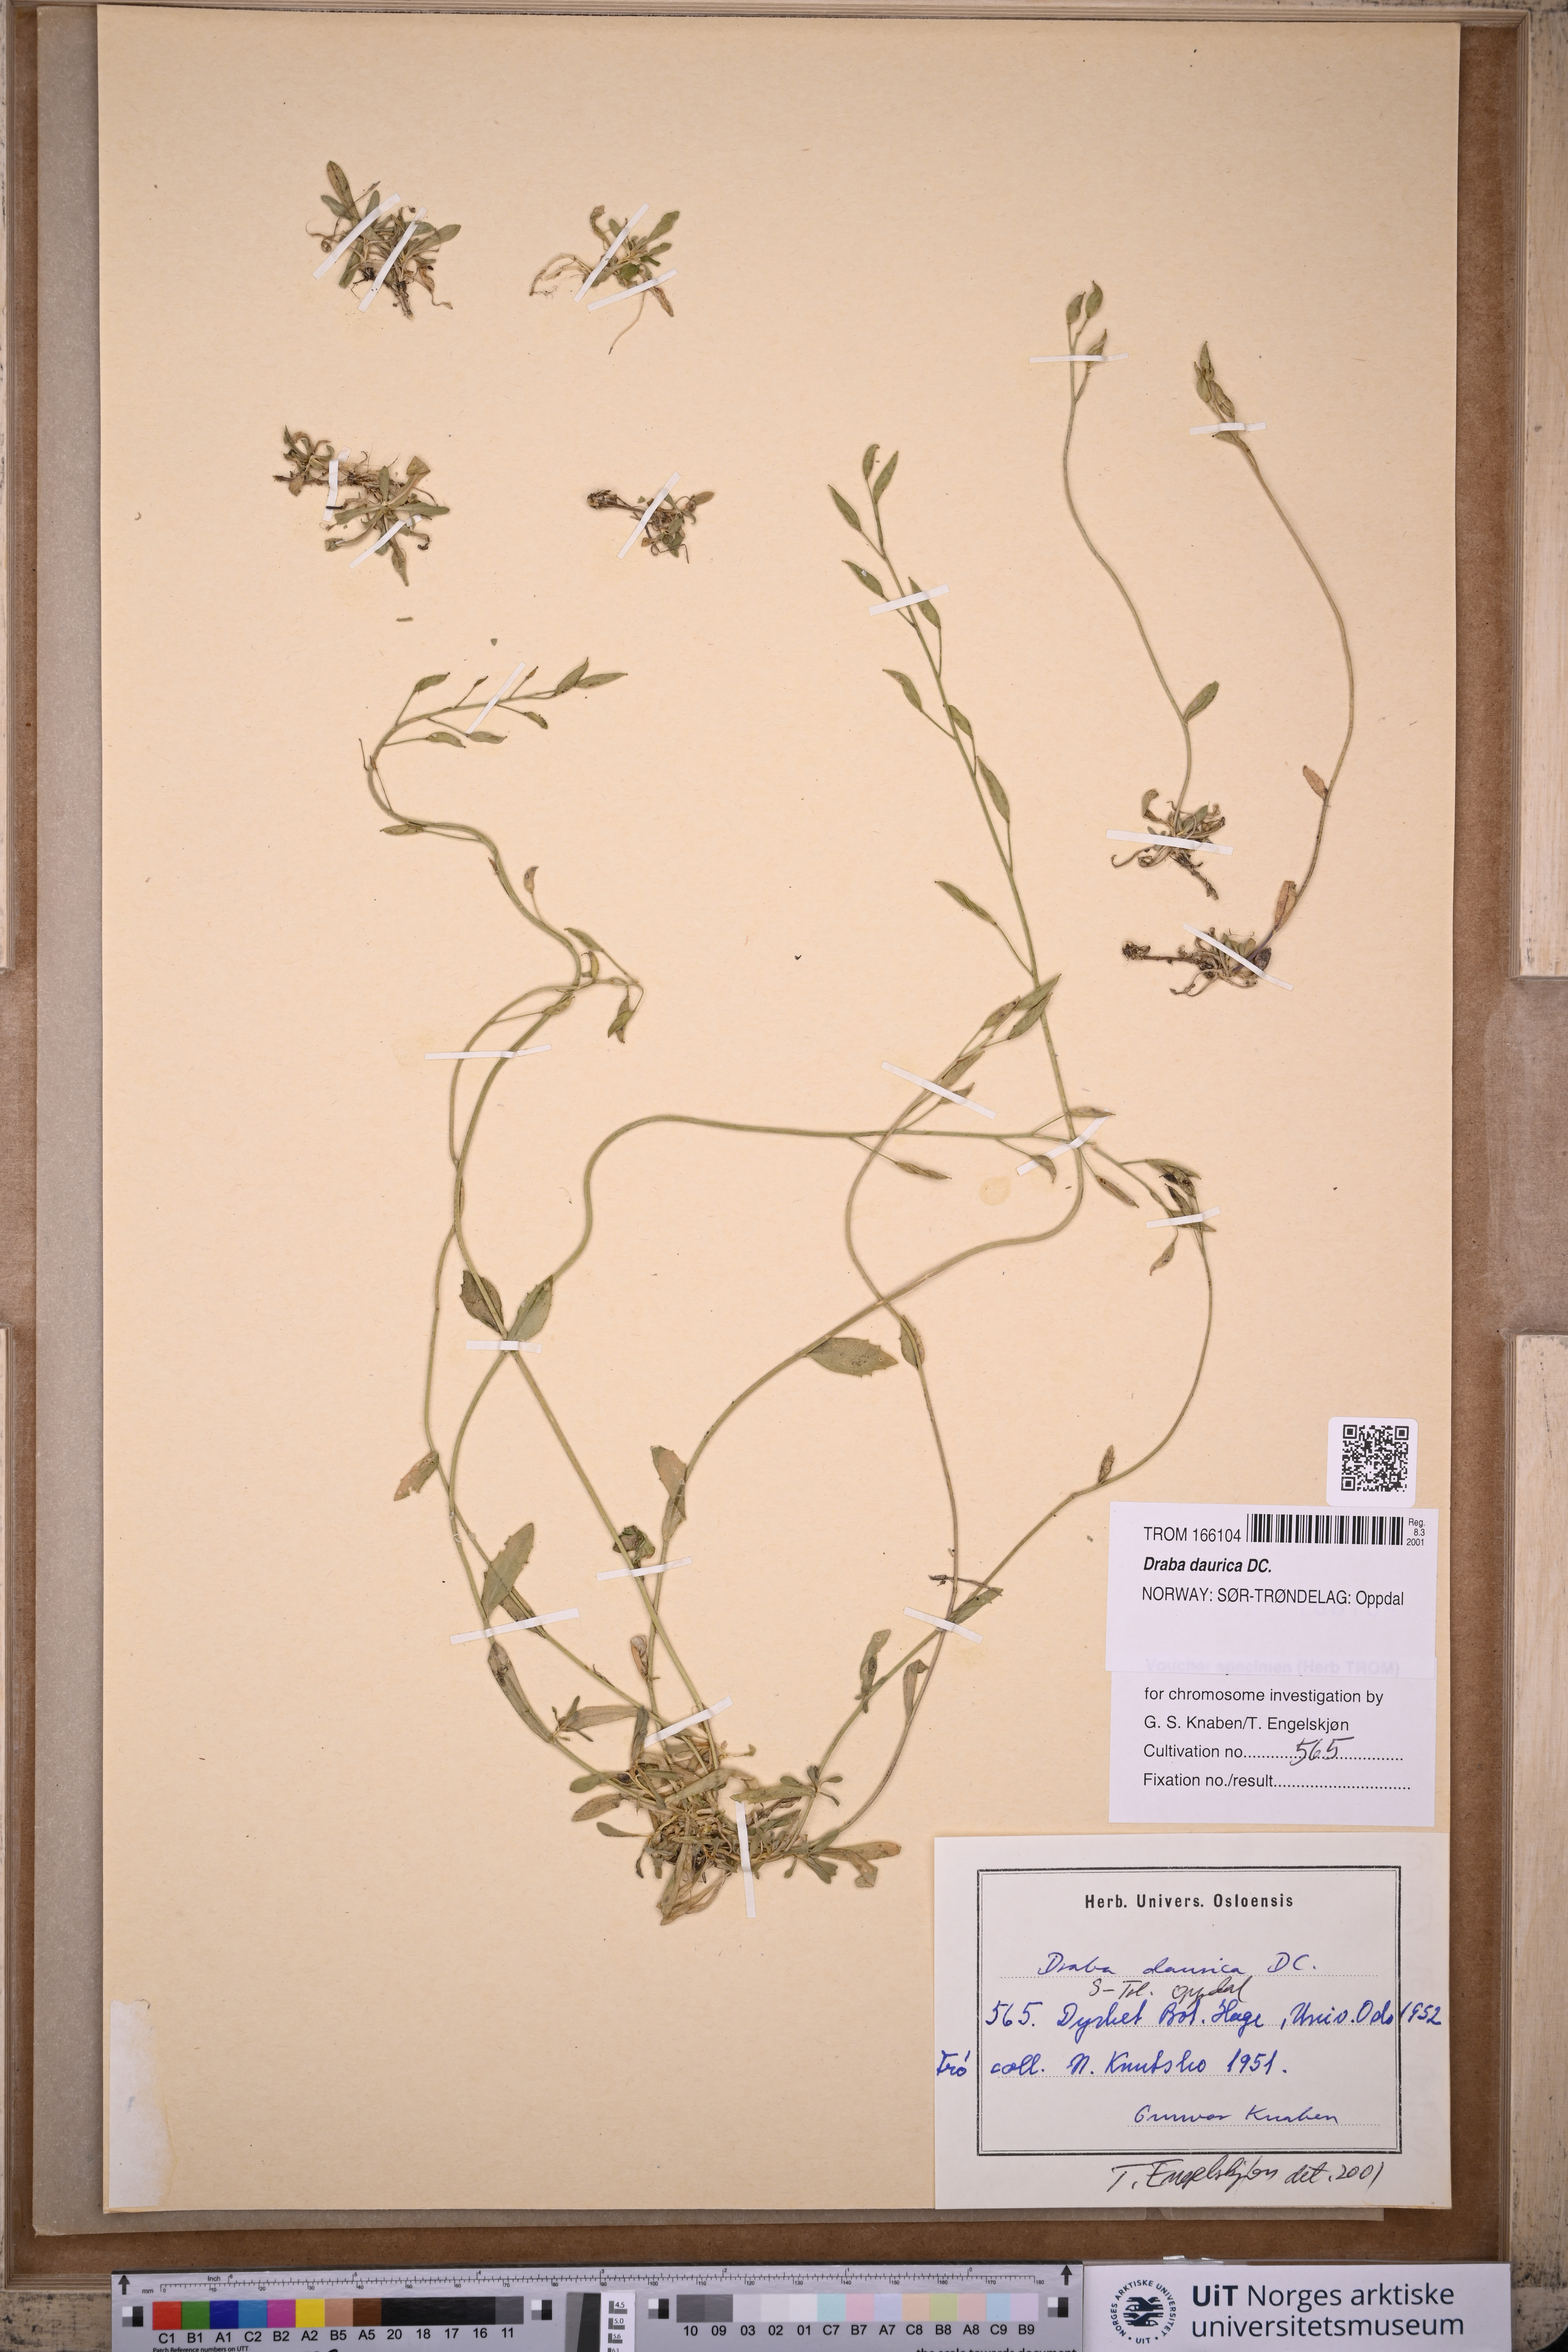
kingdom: Plantae
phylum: Tracheophyta
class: Magnoliopsida
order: Brassicales
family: Brassicaceae
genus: Draba
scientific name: Draba glabella
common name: Glaucous draba
